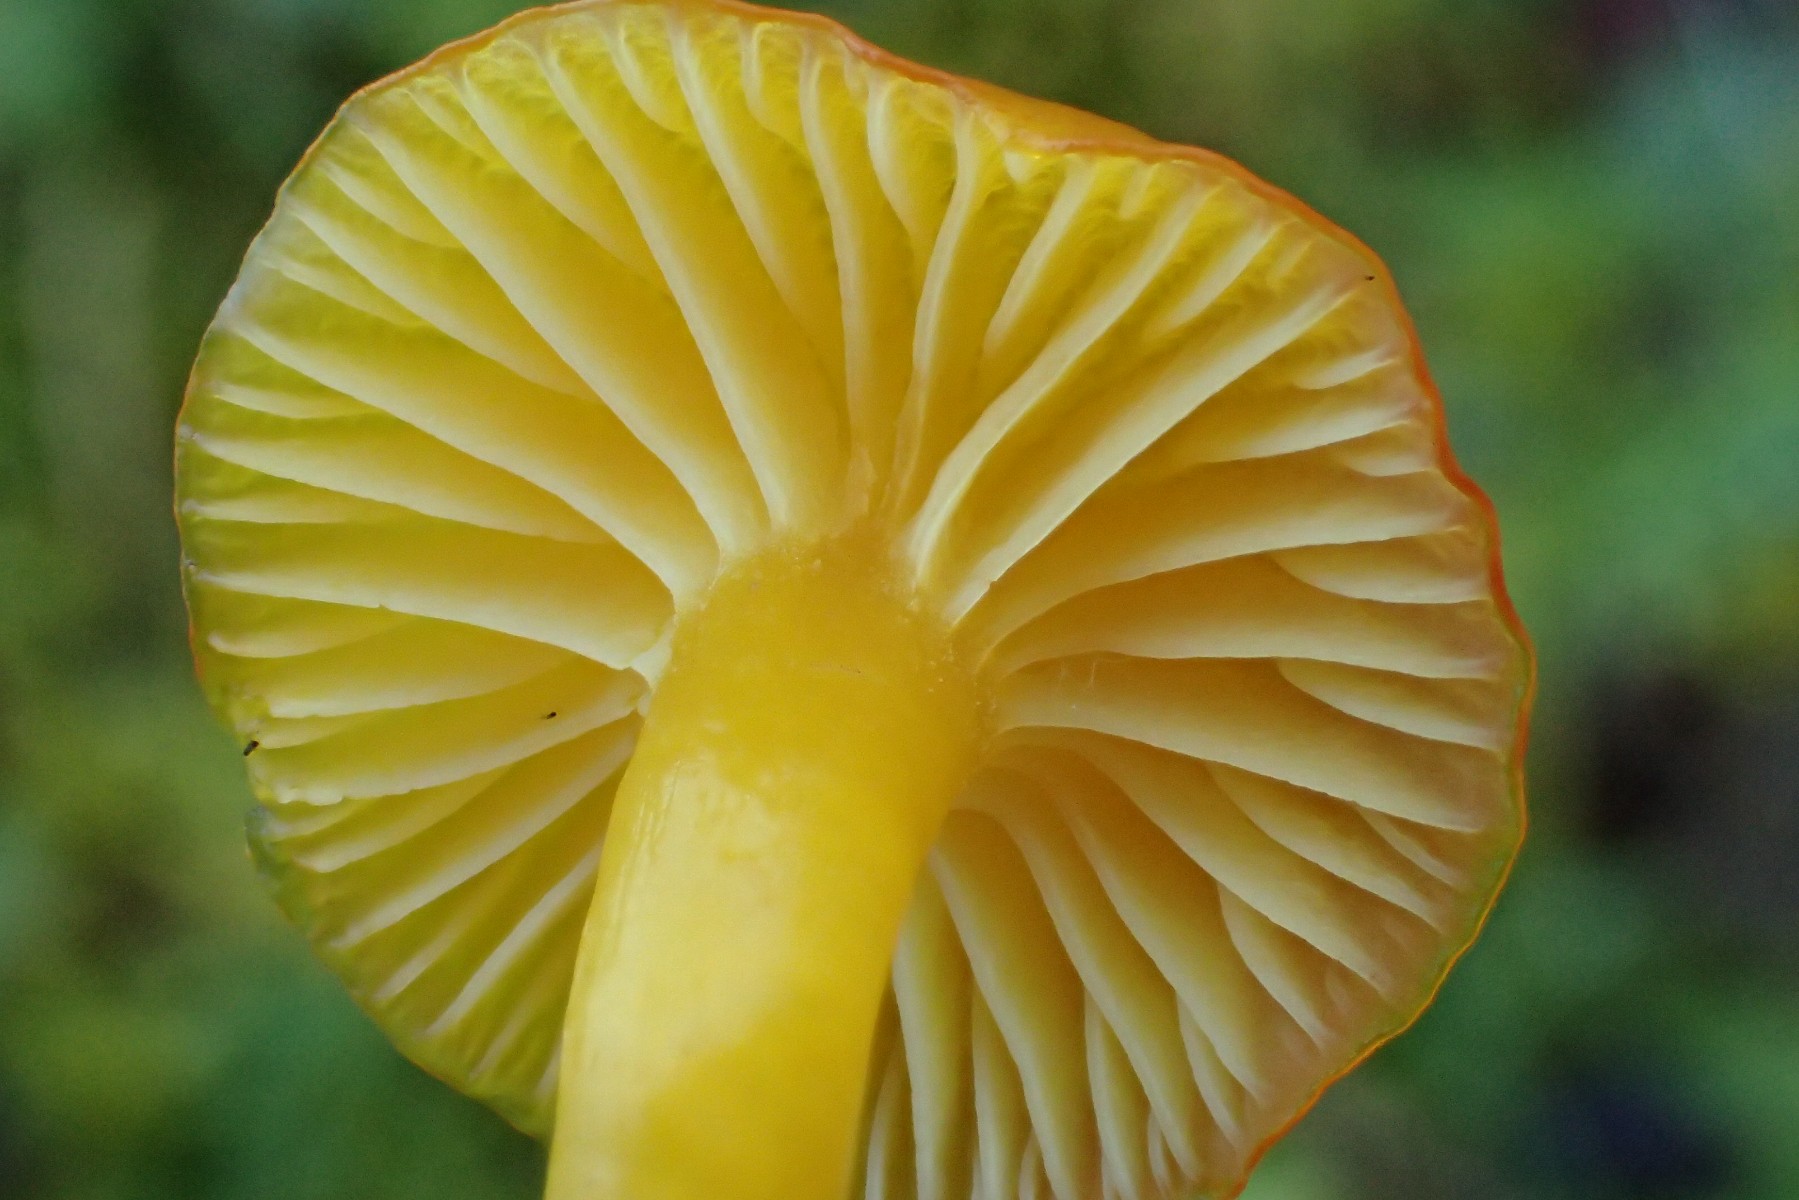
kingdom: Fungi
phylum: Basidiomycota
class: Agaricomycetes
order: Agaricales
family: Hygrophoraceae
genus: Hygrocybe
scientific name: Hygrocybe ceracea
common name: voksgul vokshat
